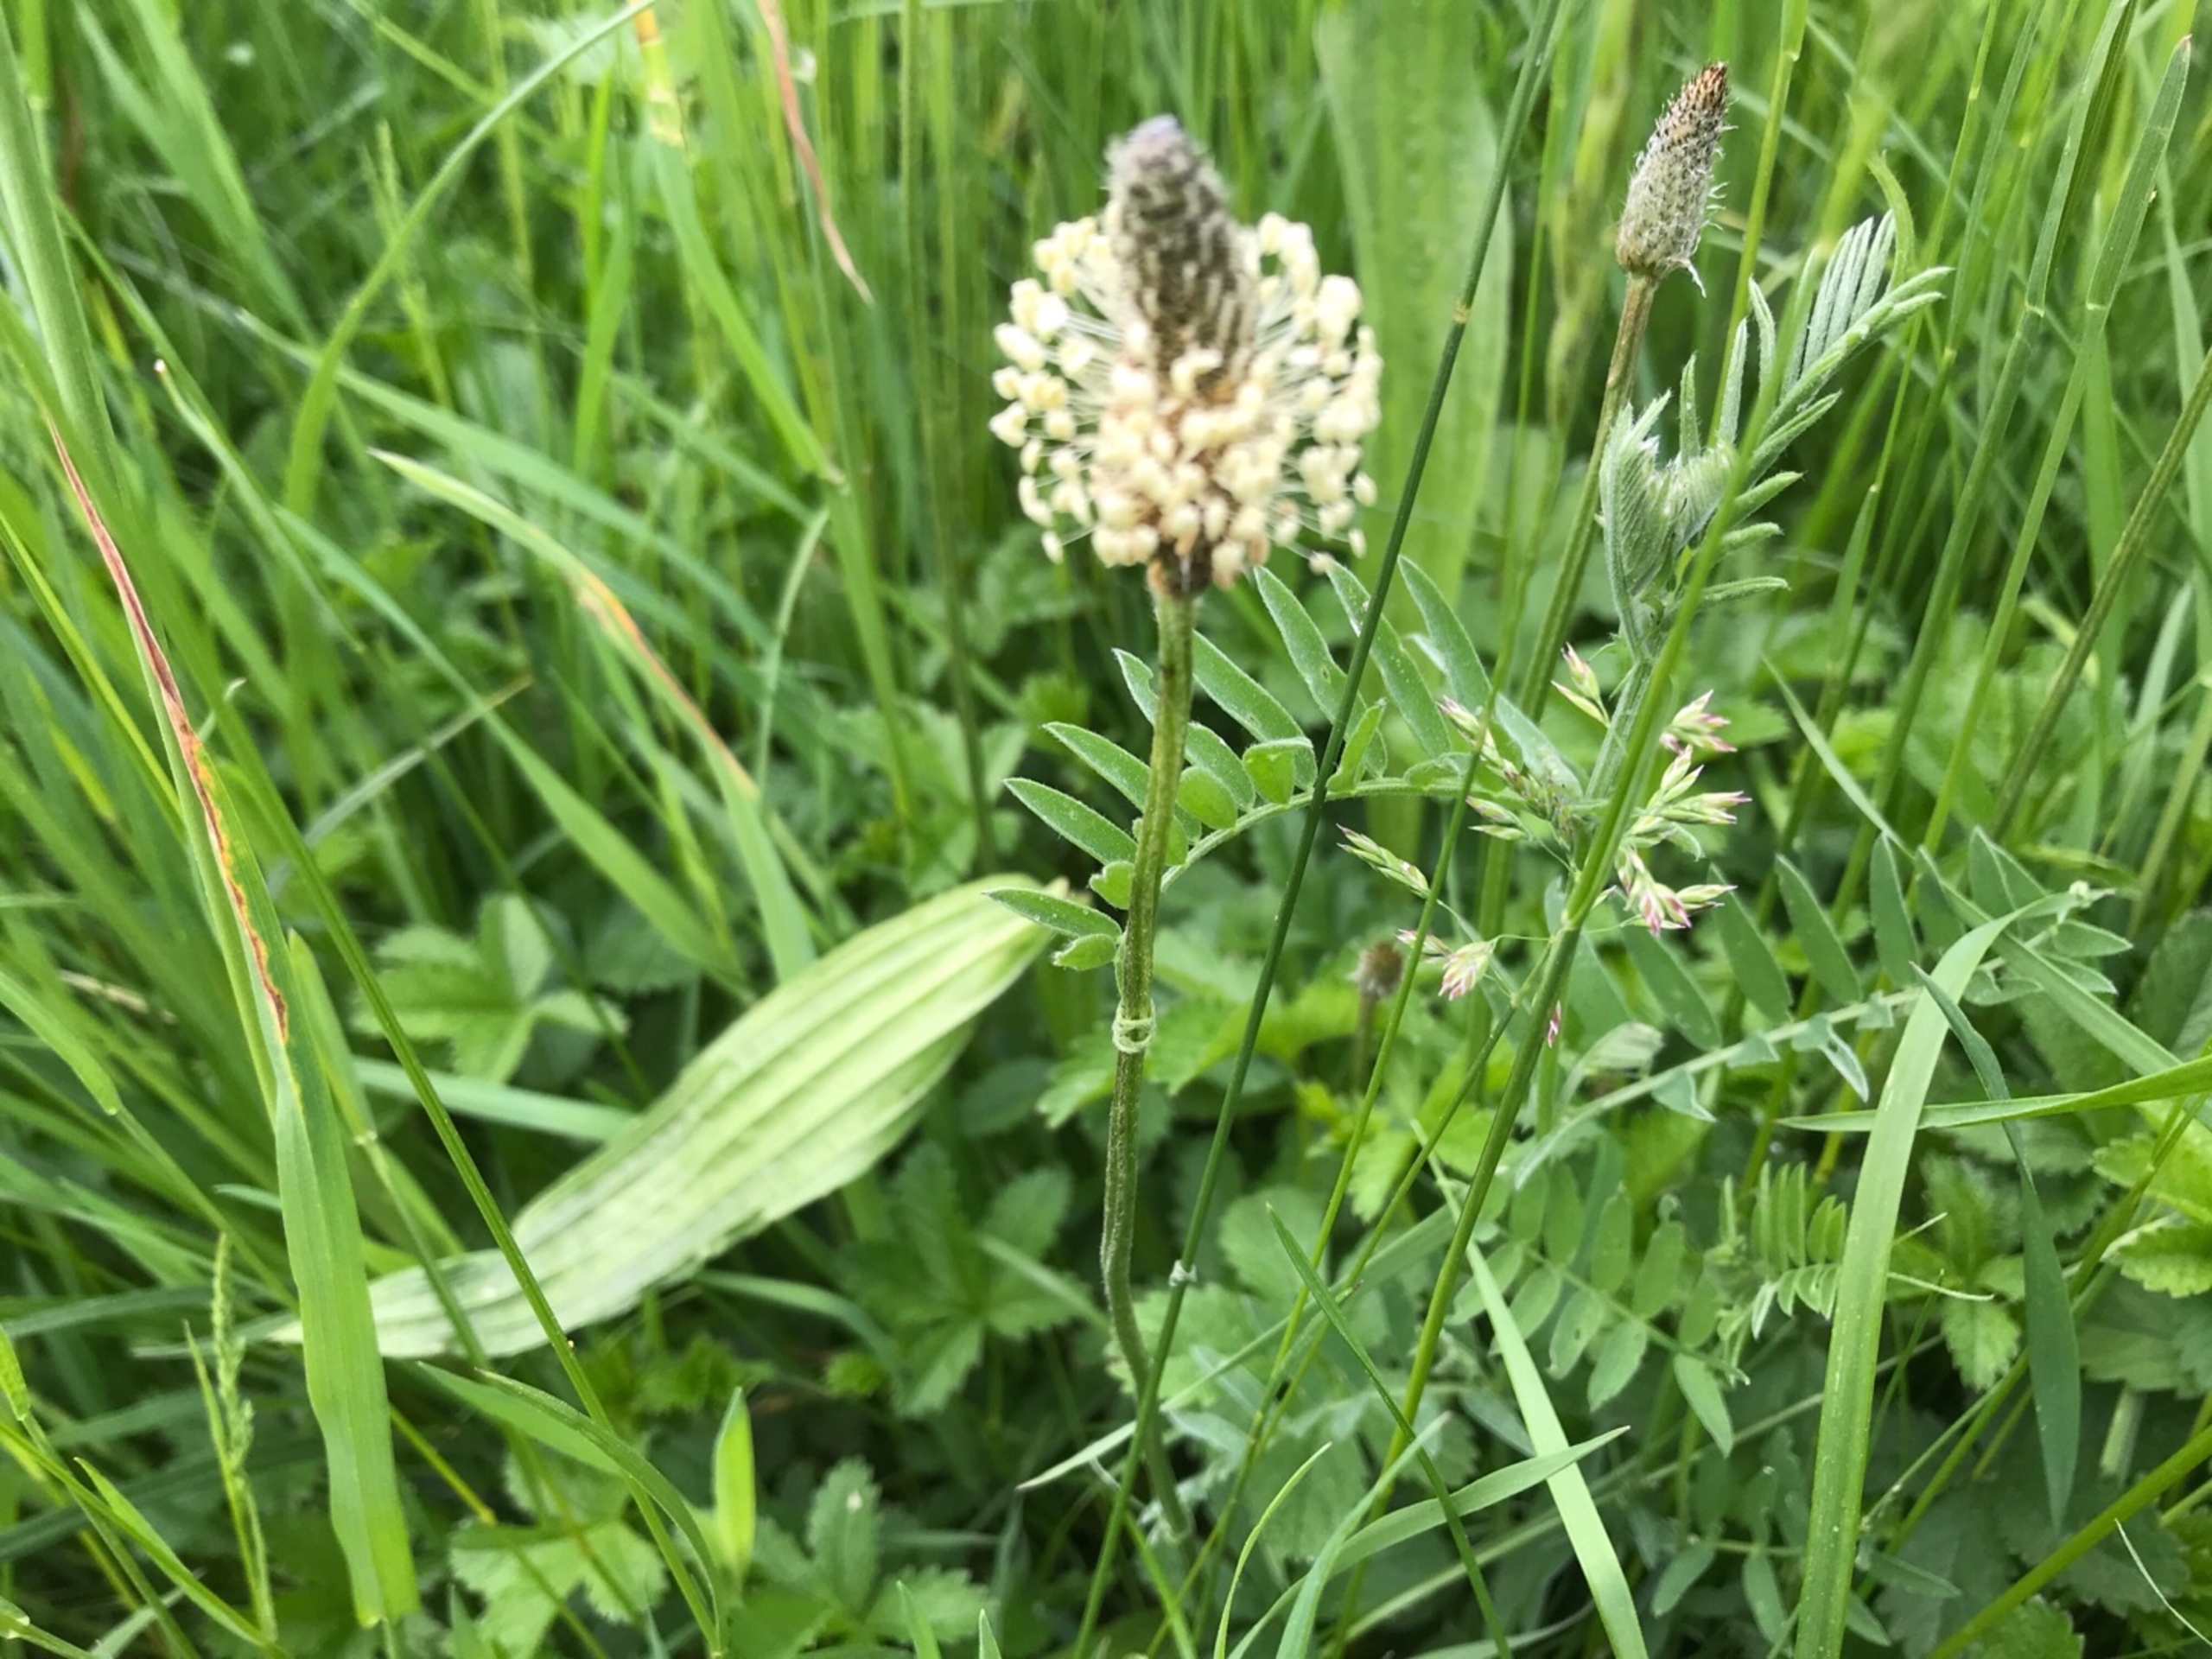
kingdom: Plantae
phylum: Tracheophyta
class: Magnoliopsida
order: Lamiales
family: Plantaginaceae
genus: Plantago
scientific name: Plantago lanceolata
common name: Lancet-vejbred
